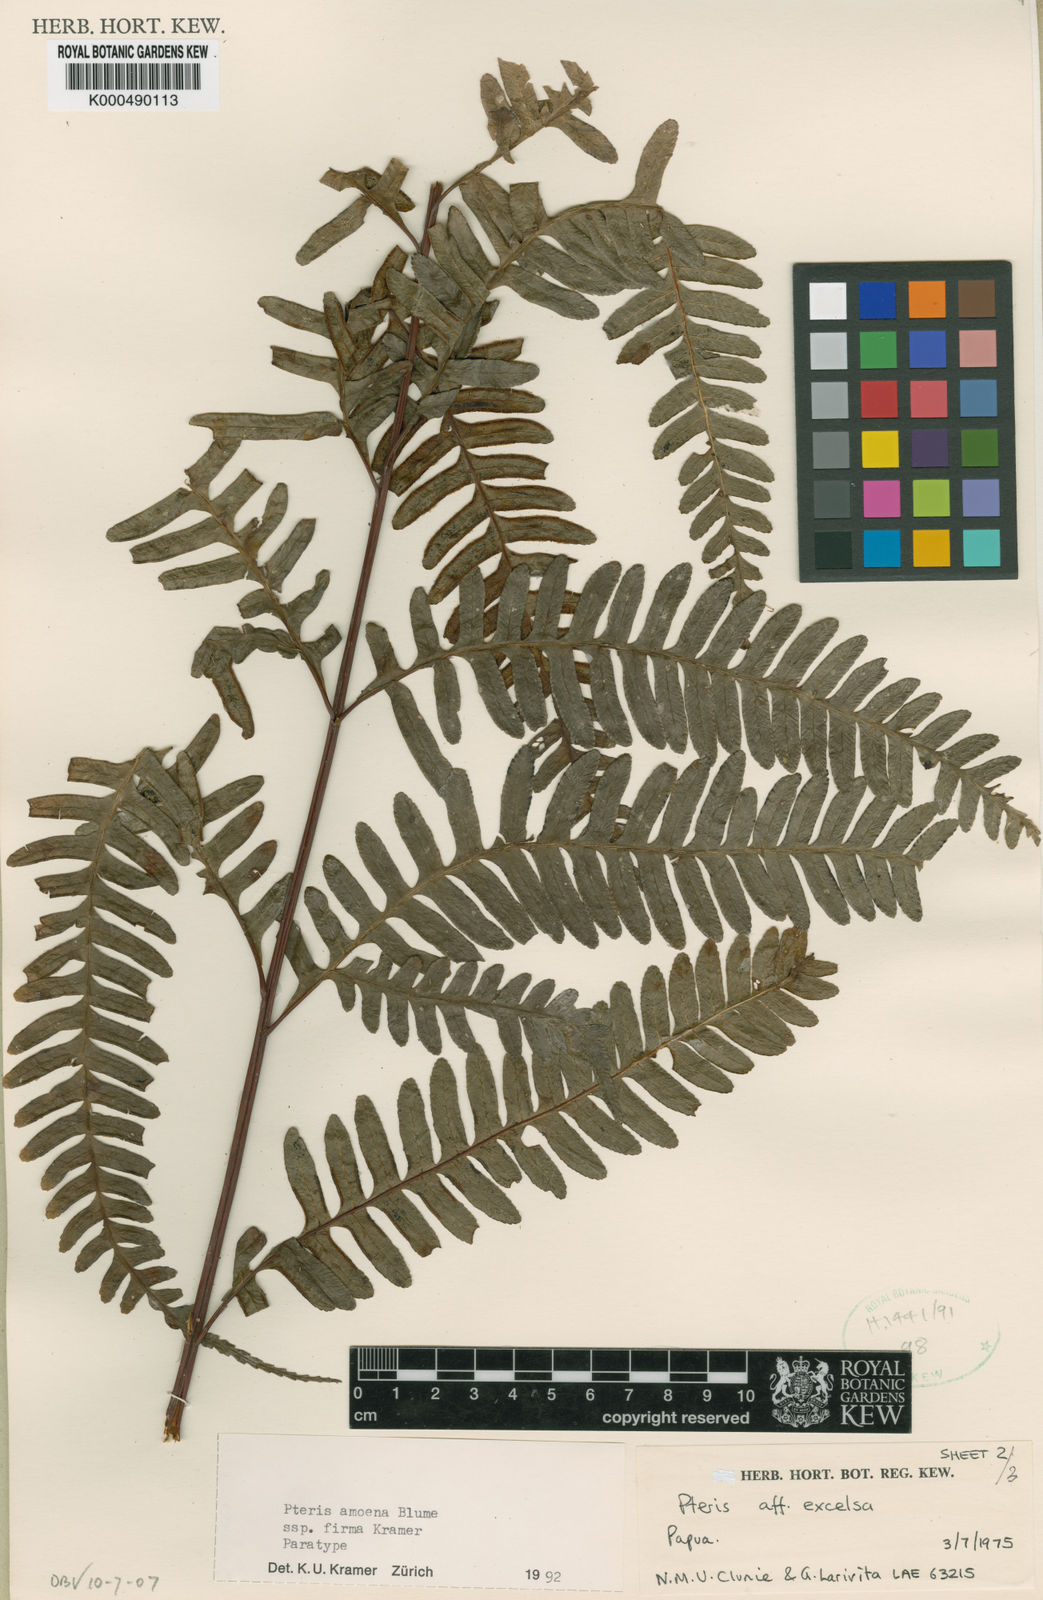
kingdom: Plantae
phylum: Tracheophyta
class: Polypodiopsida
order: Polypodiales
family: Pteridaceae
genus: Pteris
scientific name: Pteris amoena
